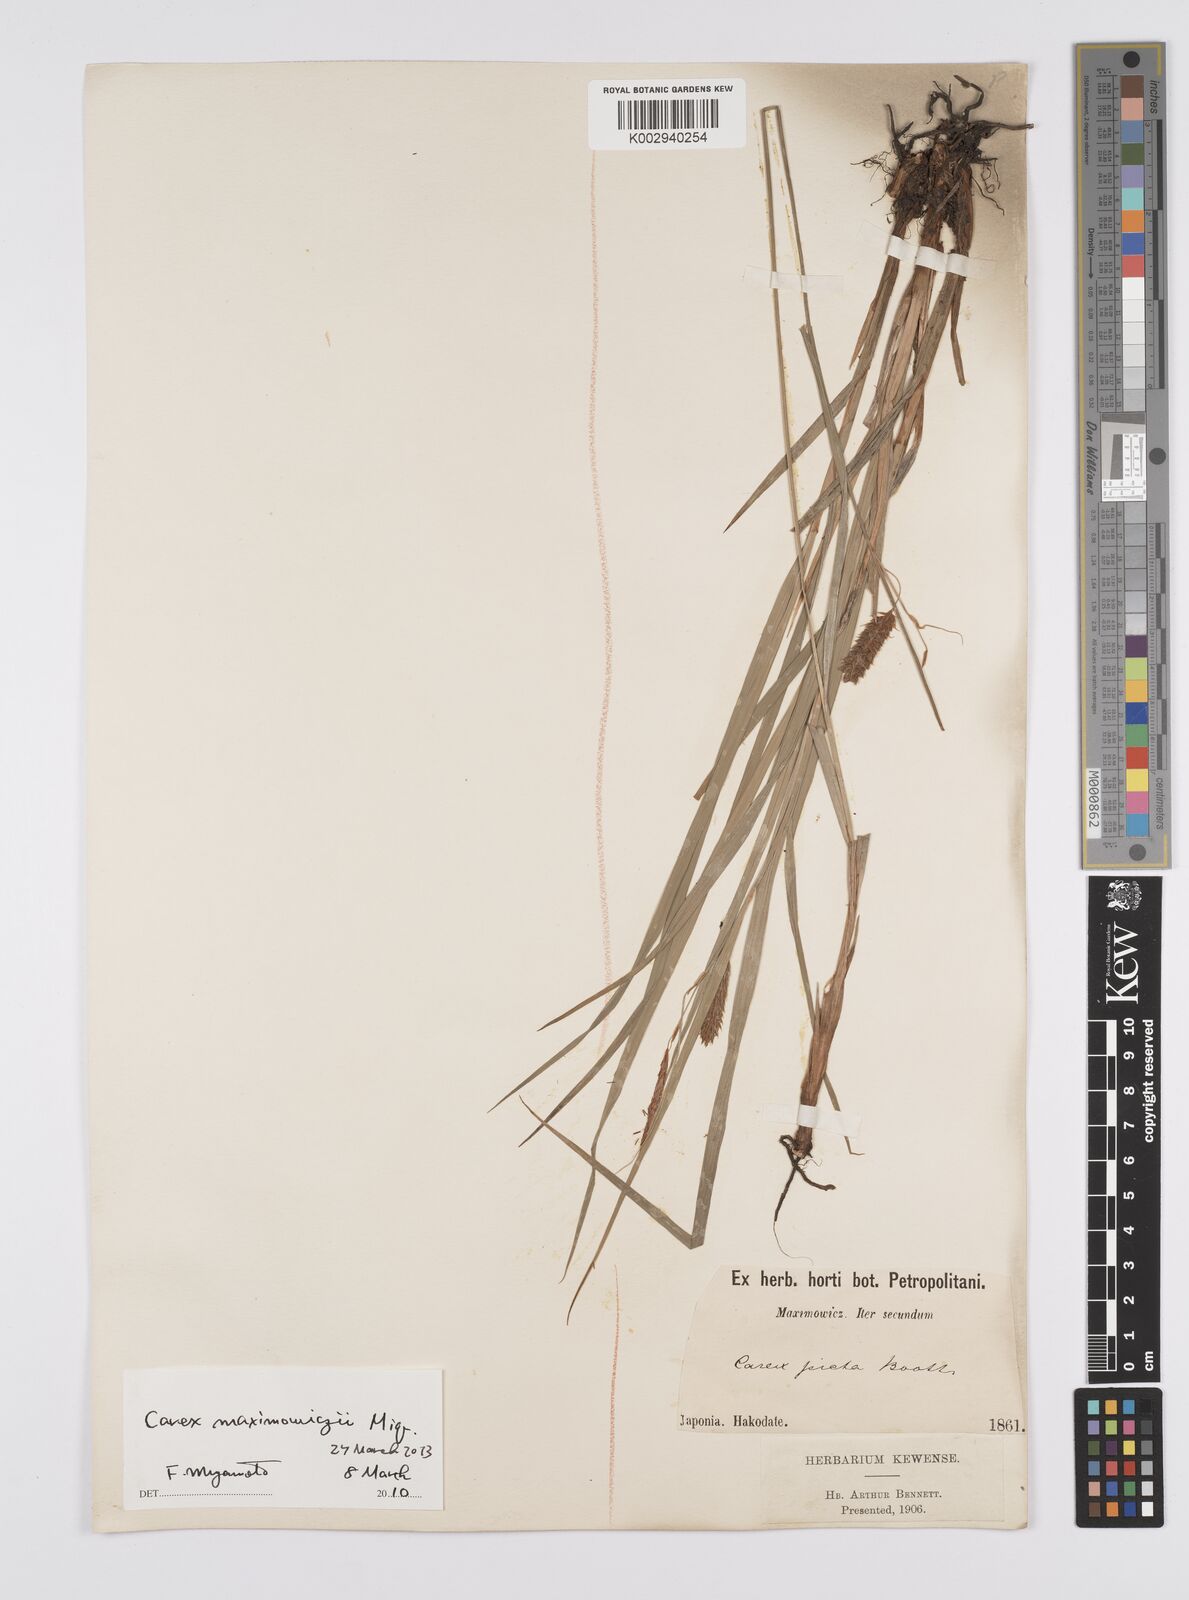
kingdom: Plantae
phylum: Tracheophyta
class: Liliopsida
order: Poales
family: Cyperaceae
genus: Carex
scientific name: Carex pruinosa
